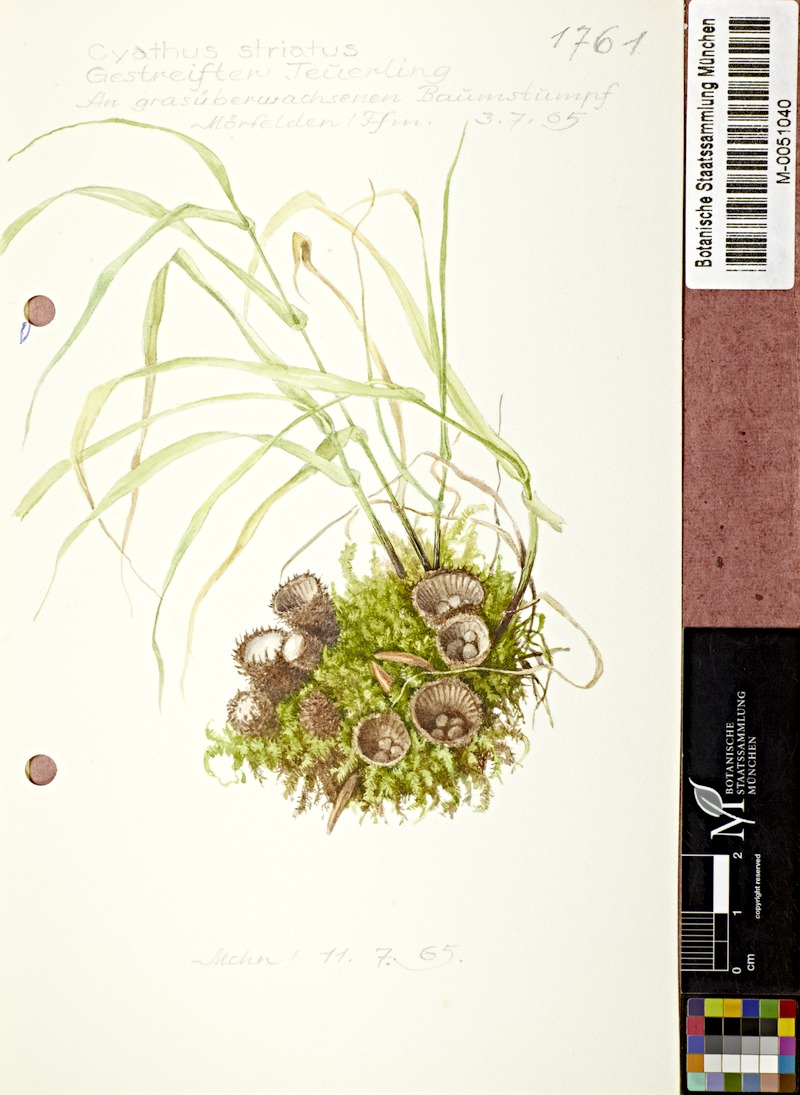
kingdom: Fungi
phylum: Basidiomycota
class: Agaricomycetes
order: Agaricales
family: Agaricaceae
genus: Cyathus
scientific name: Cyathus striatus
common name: Fluted bird's nest
